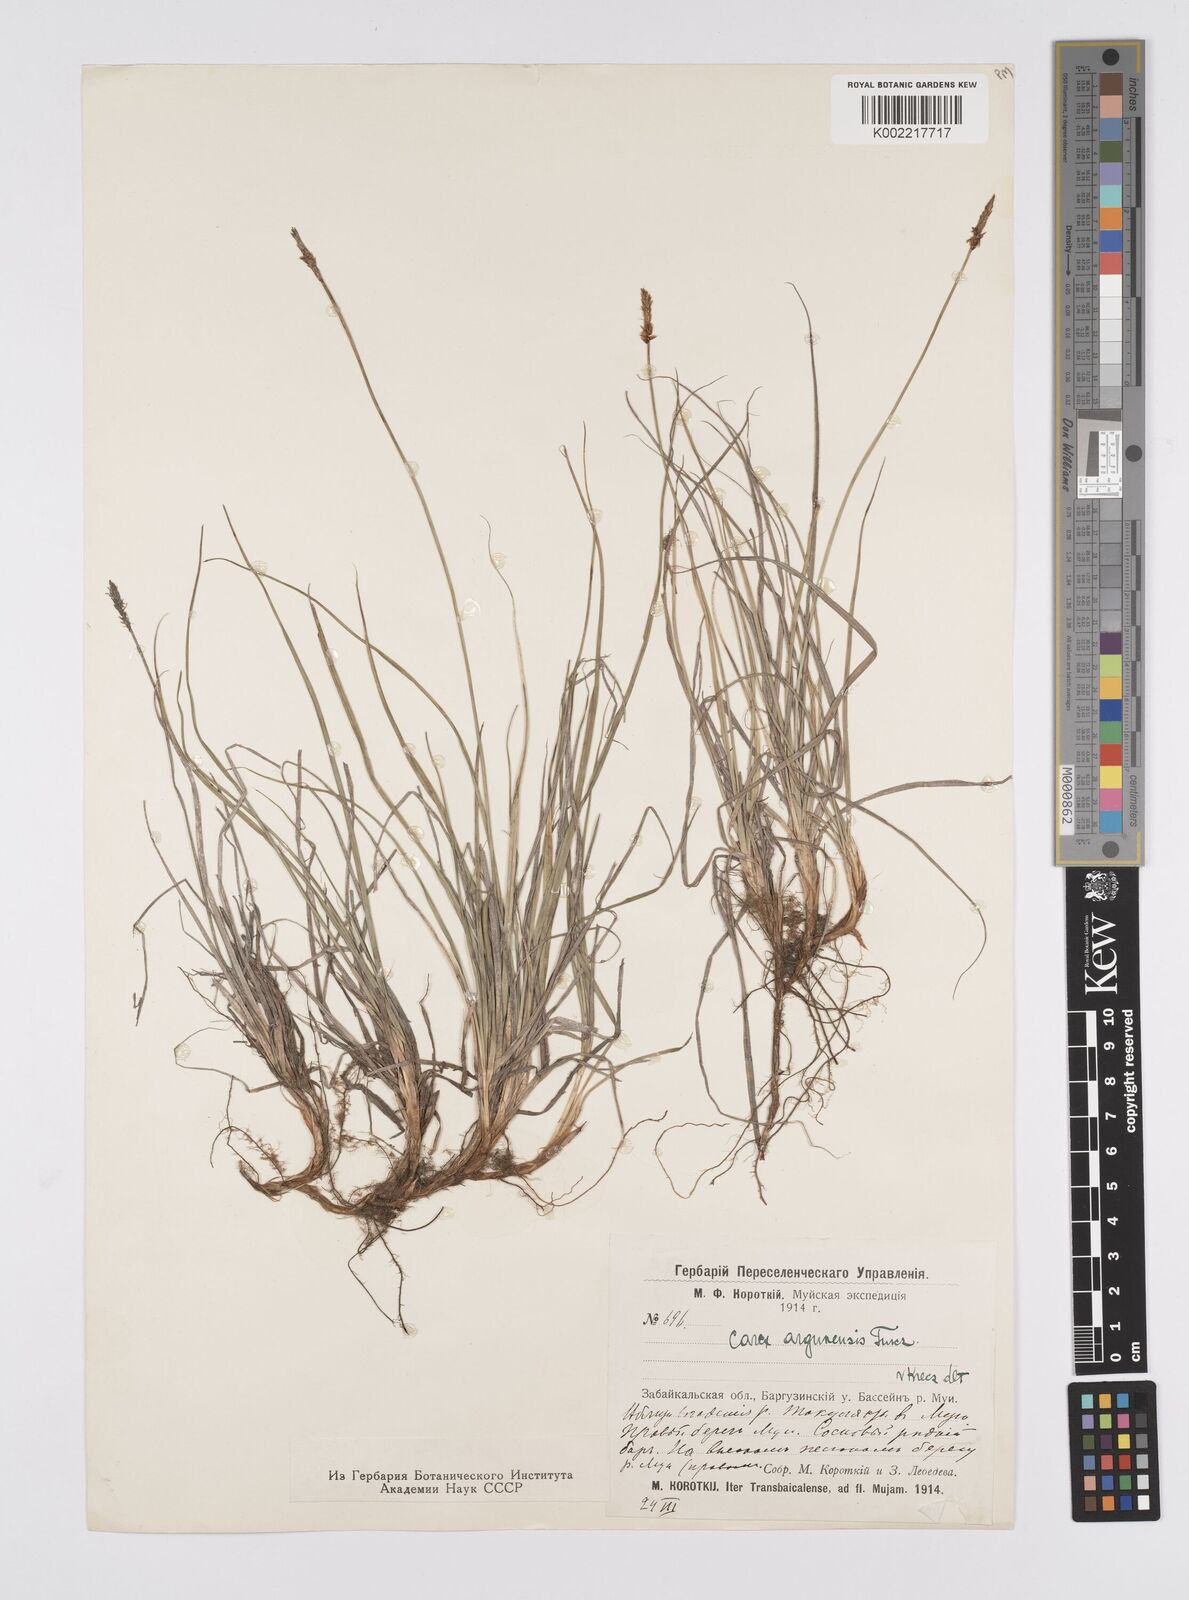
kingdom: Plantae
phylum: Tracheophyta
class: Liliopsida
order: Poales
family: Cyperaceae
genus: Carex
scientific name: Carex argunensis
